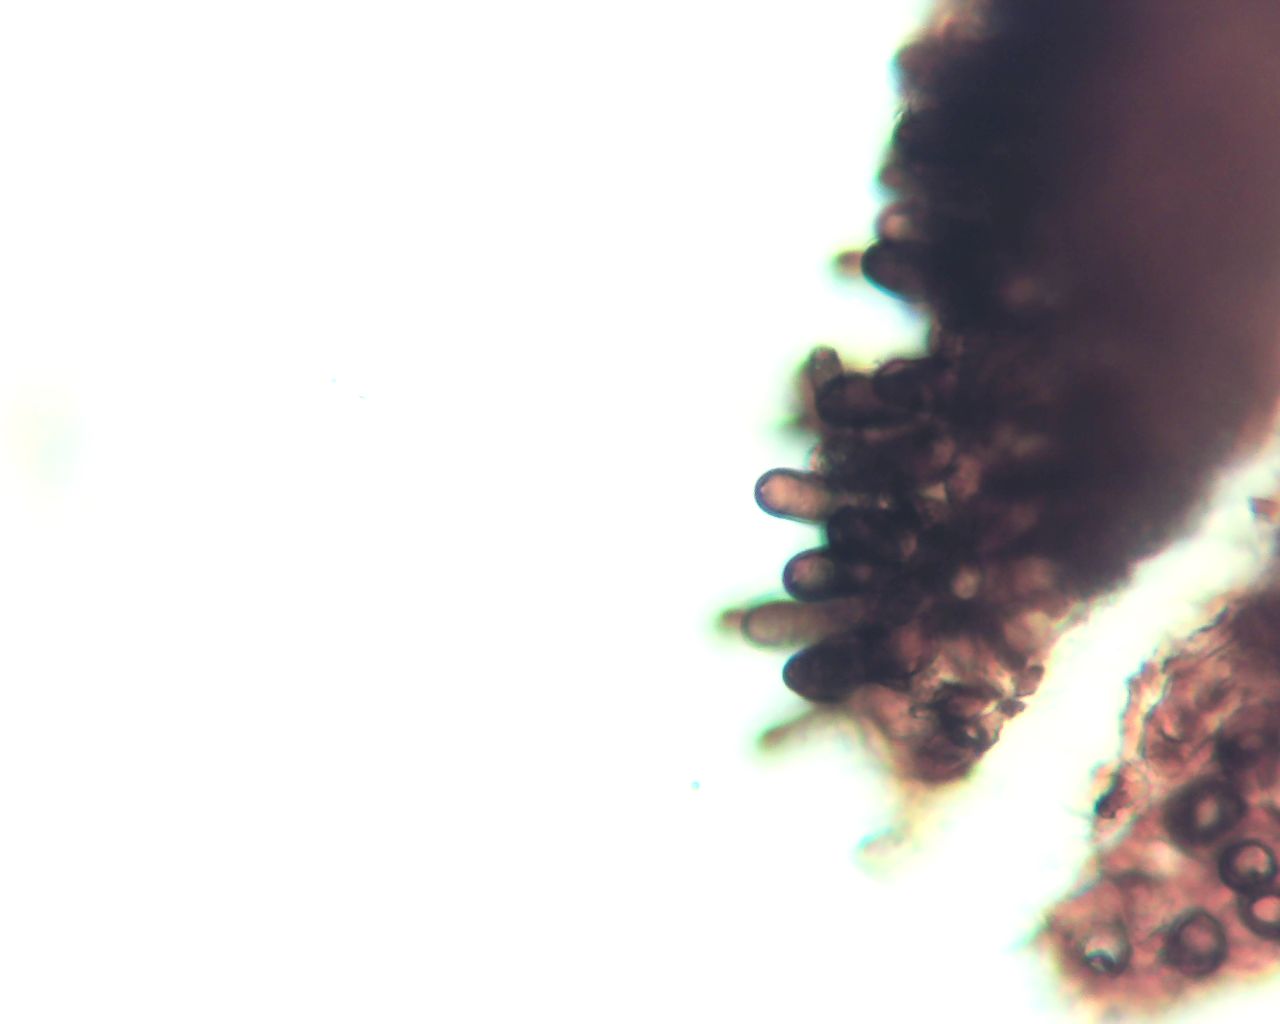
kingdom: Fungi
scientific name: Fungi
